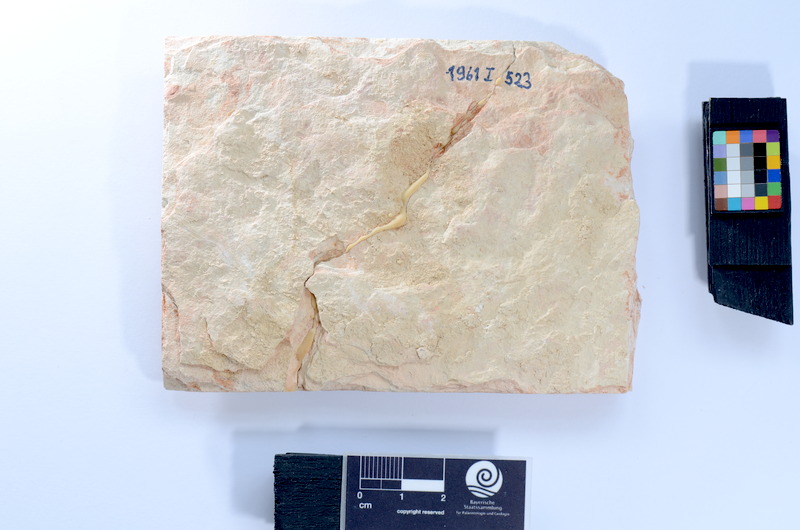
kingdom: Animalia
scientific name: Animalia
